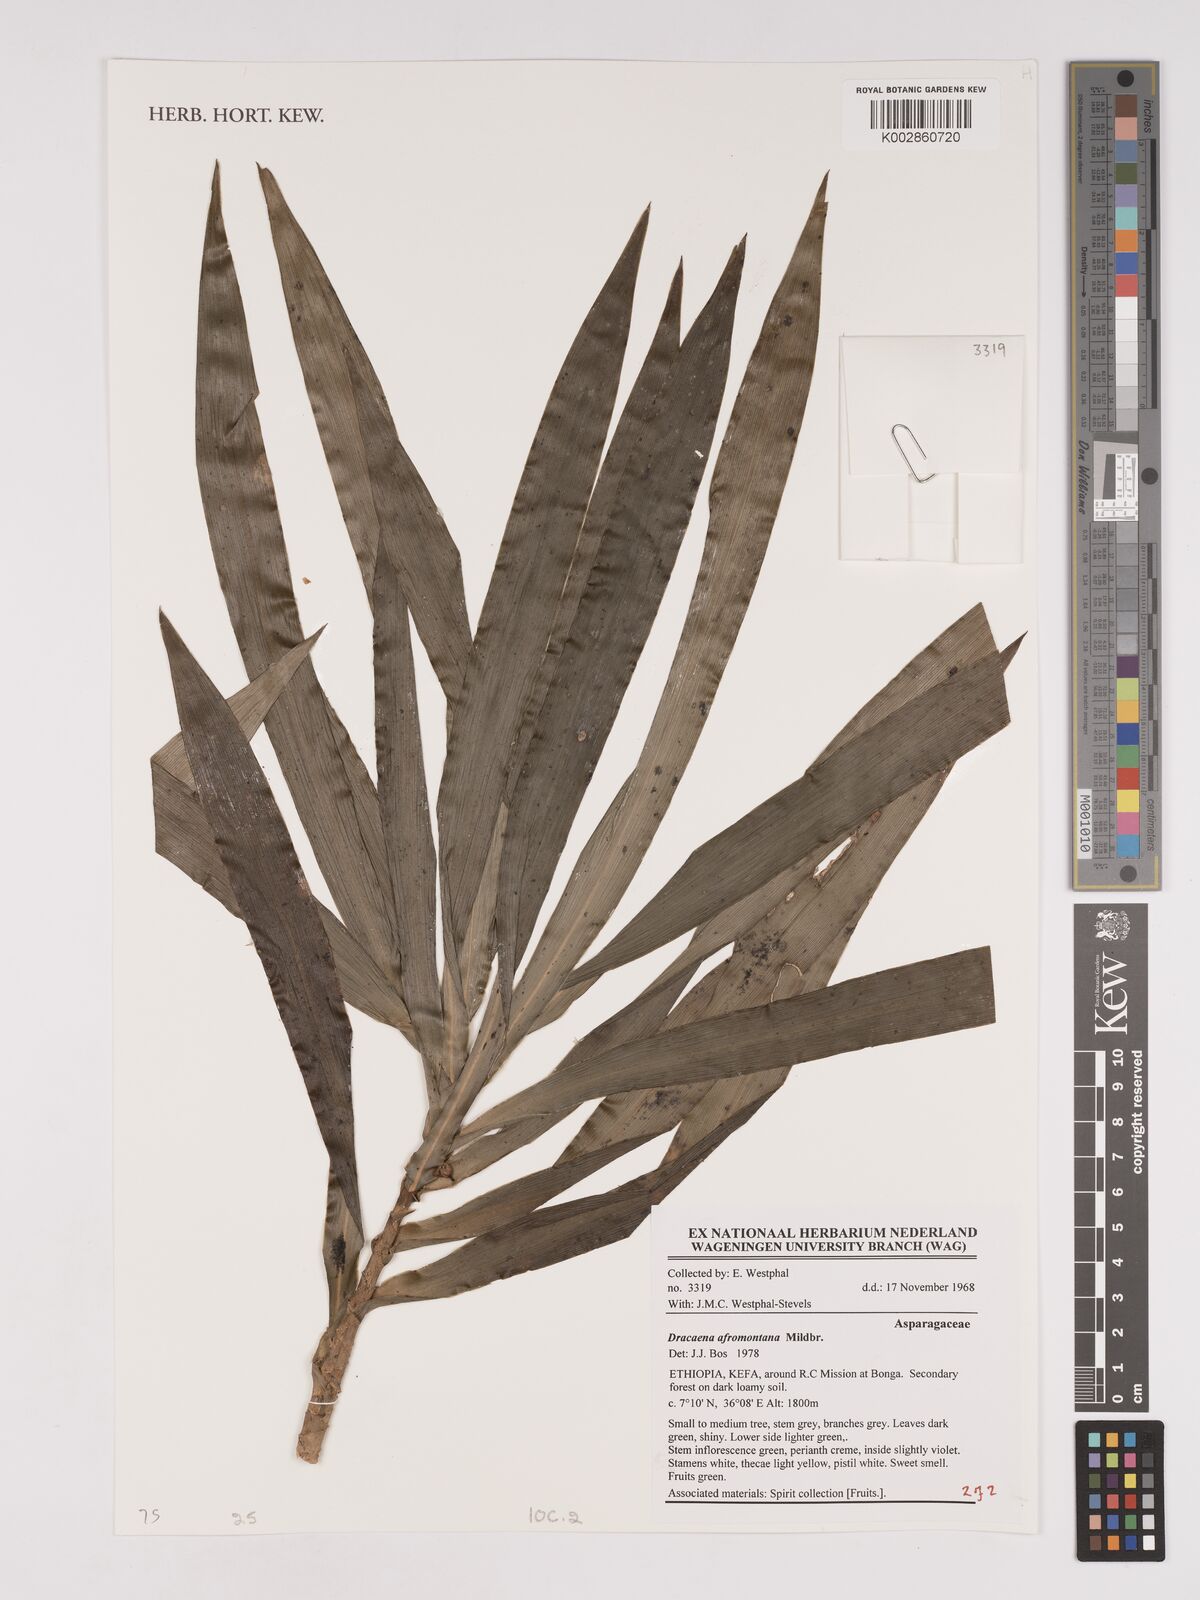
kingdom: Plantae
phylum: Tracheophyta
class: Liliopsida
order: Asparagales
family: Asparagaceae
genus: Dracaena
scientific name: Dracaena afromontana
